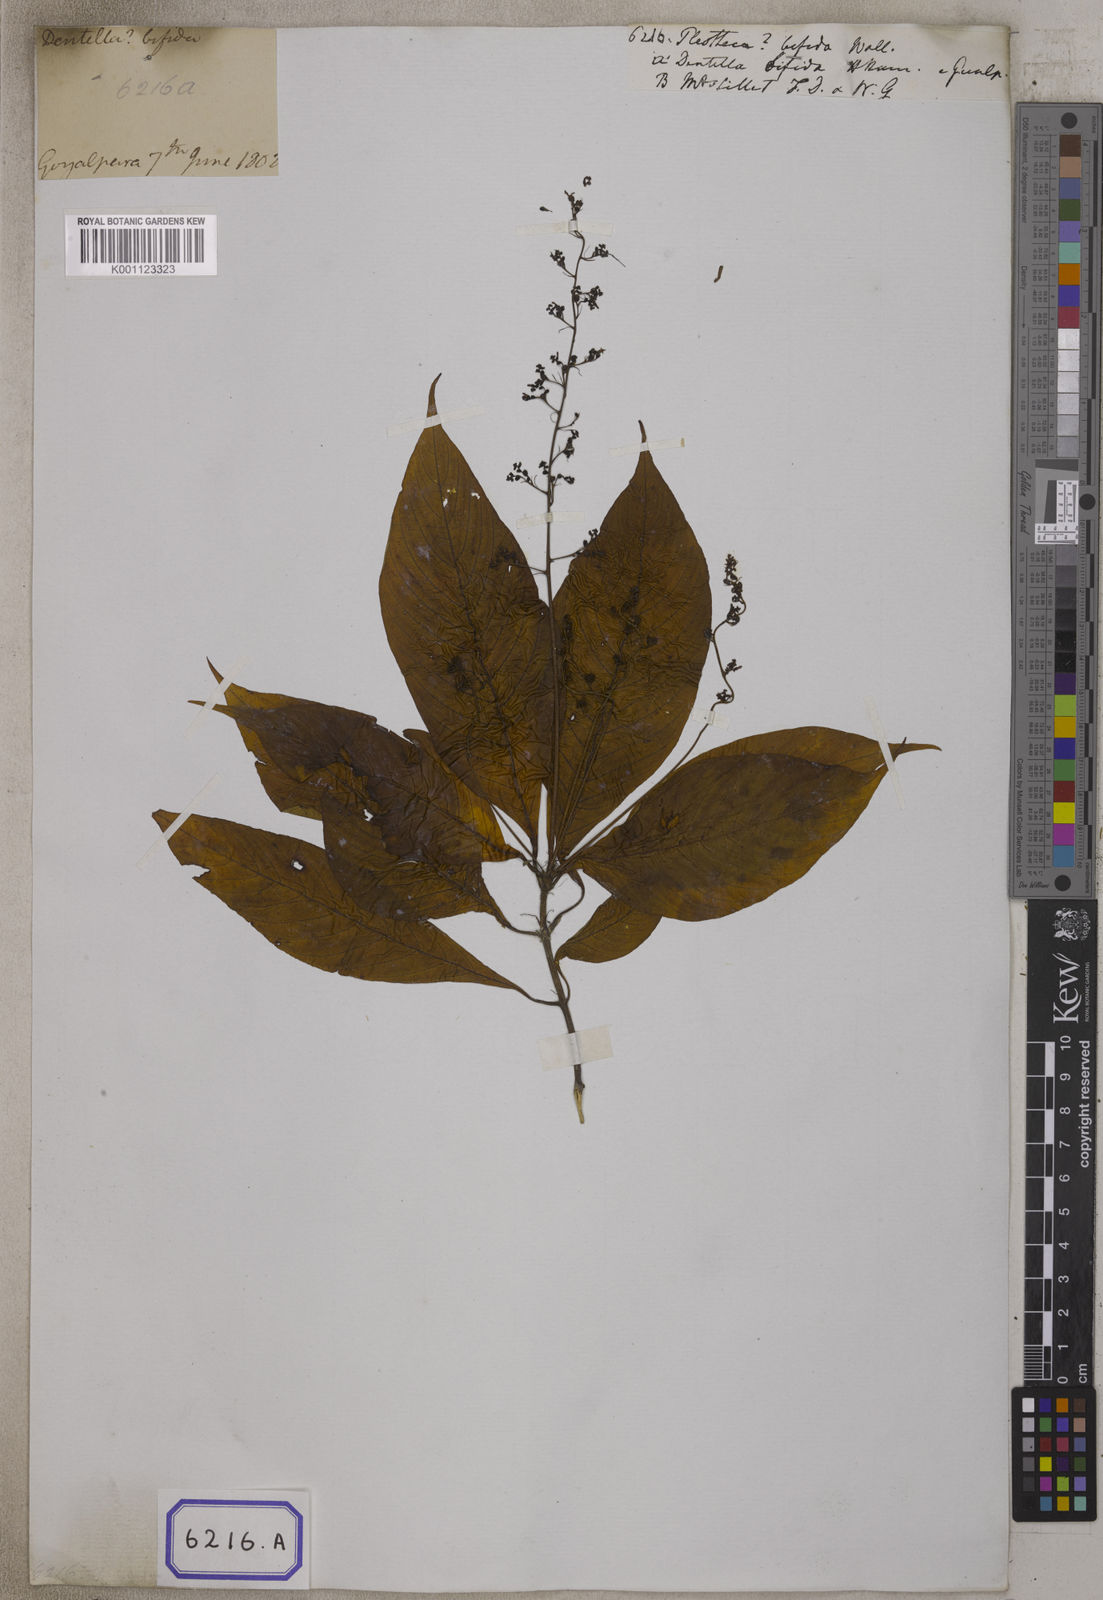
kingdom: Plantae
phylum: Tracheophyta
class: Magnoliopsida
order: Gentianales
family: Rubiaceae
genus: Ophiorrhiza
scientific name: Ophiorrhiza
